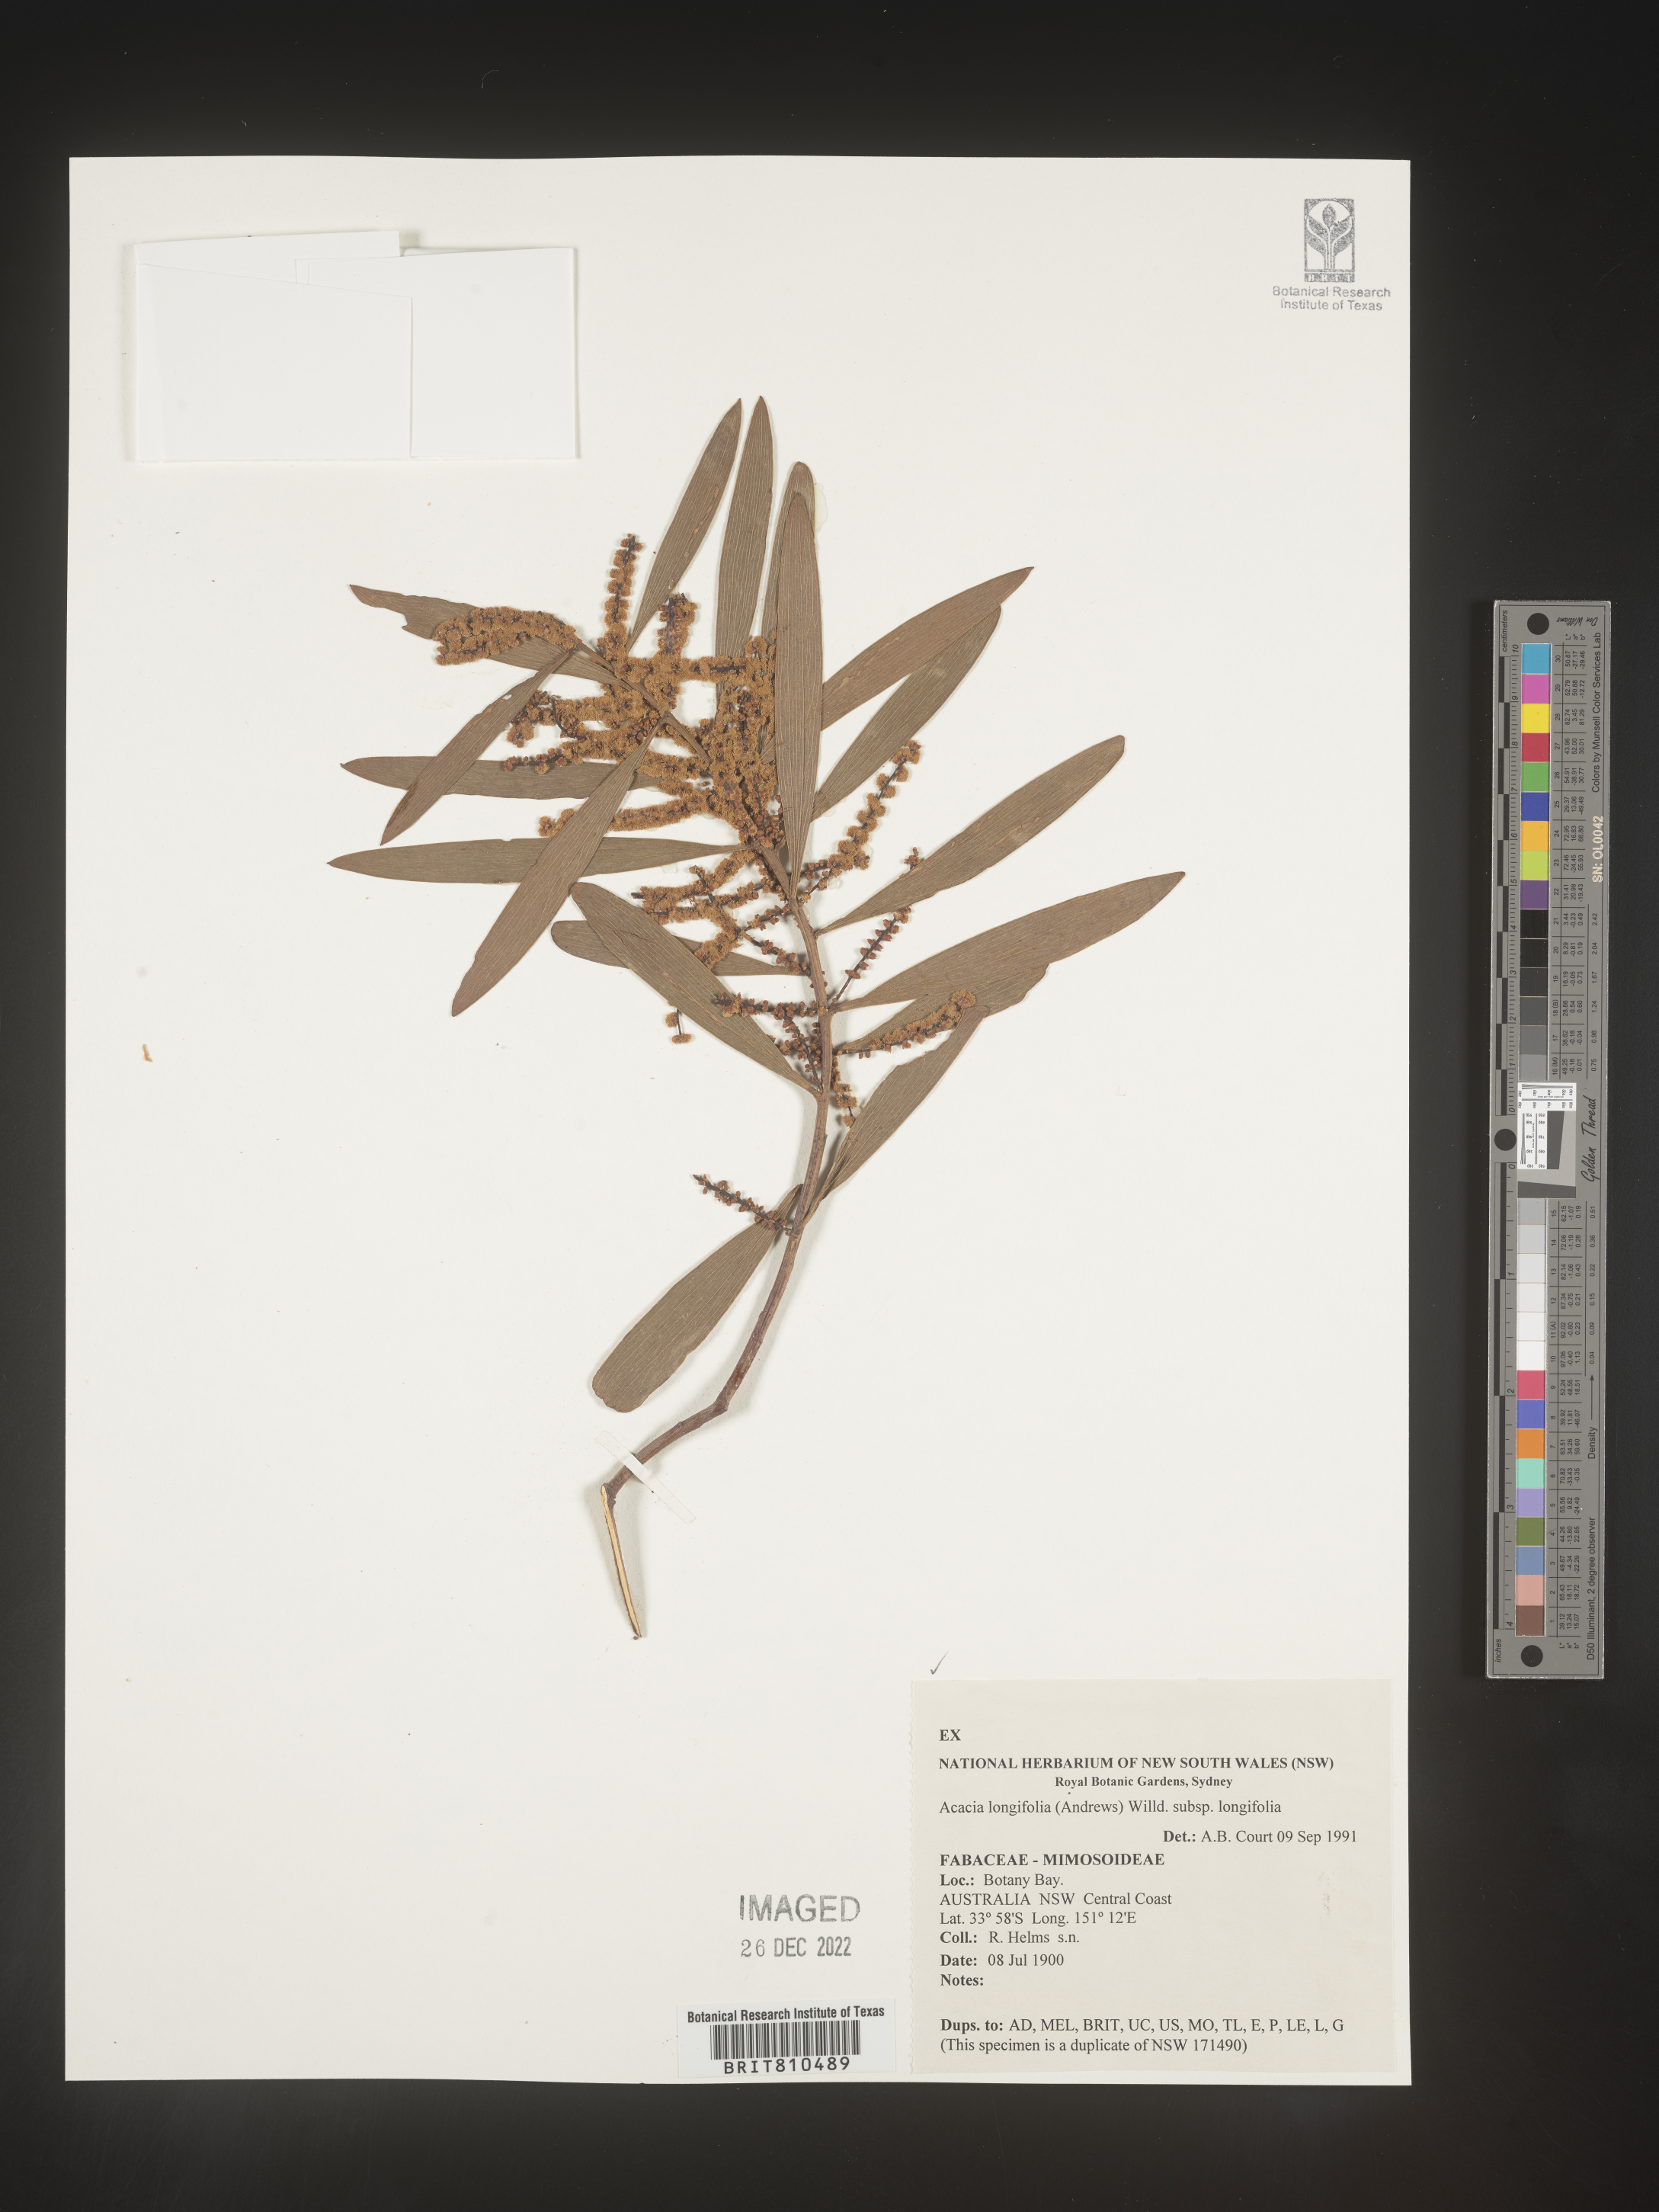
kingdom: Plantae
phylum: Tracheophyta
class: Magnoliopsida
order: Fabales
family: Fabaceae
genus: Acacia
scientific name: Acacia
